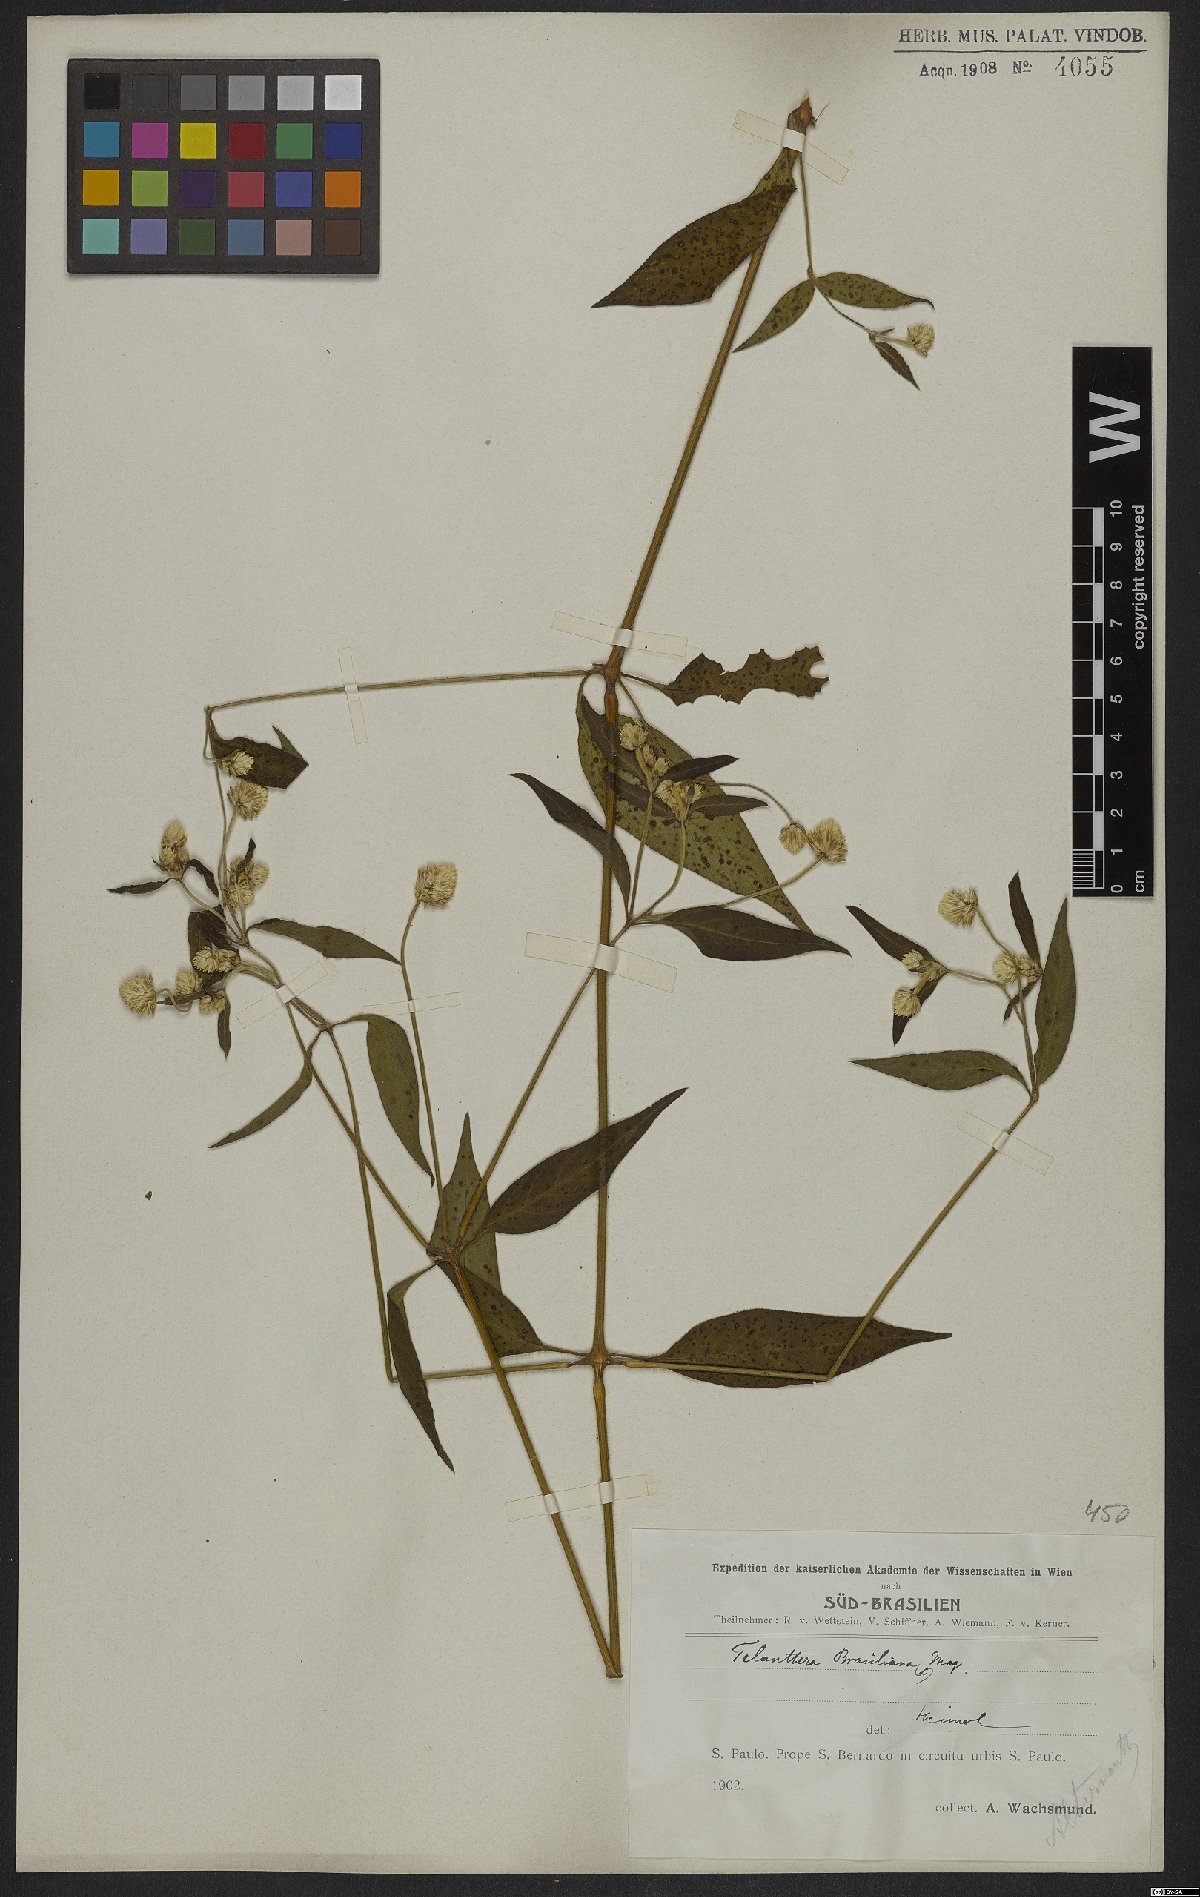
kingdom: Plantae
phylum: Tracheophyta
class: Magnoliopsida
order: Caryophyllales
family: Amaranthaceae
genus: Alternanthera
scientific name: Alternanthera brasiliana
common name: Brazilian joyweed
